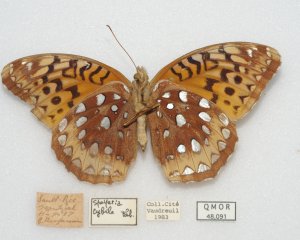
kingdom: Animalia
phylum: Arthropoda
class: Insecta
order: Lepidoptera
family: Nymphalidae
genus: Speyeria
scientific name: Speyeria cybele
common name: Great Spangled Fritillary
